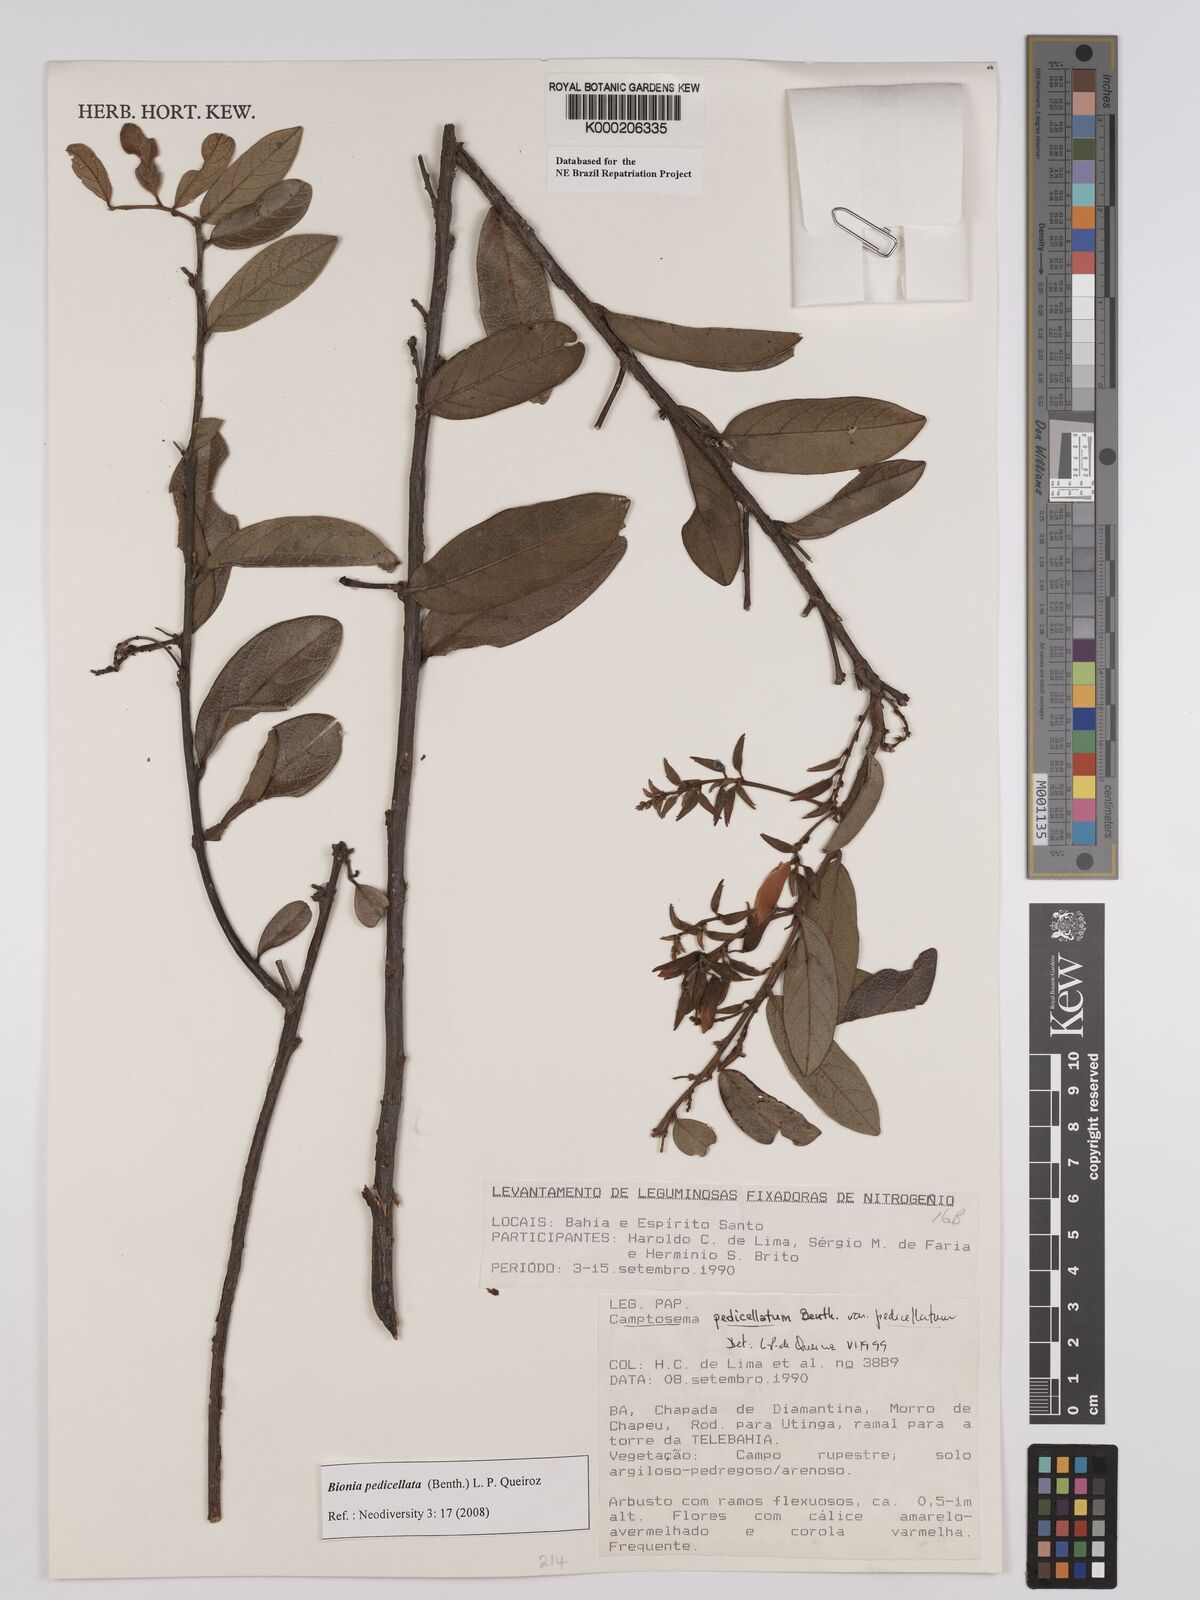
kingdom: Plantae
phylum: Tracheophyta
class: Magnoliopsida
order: Fabales
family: Fabaceae
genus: Camptosema
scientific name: Camptosema pedicellatum
